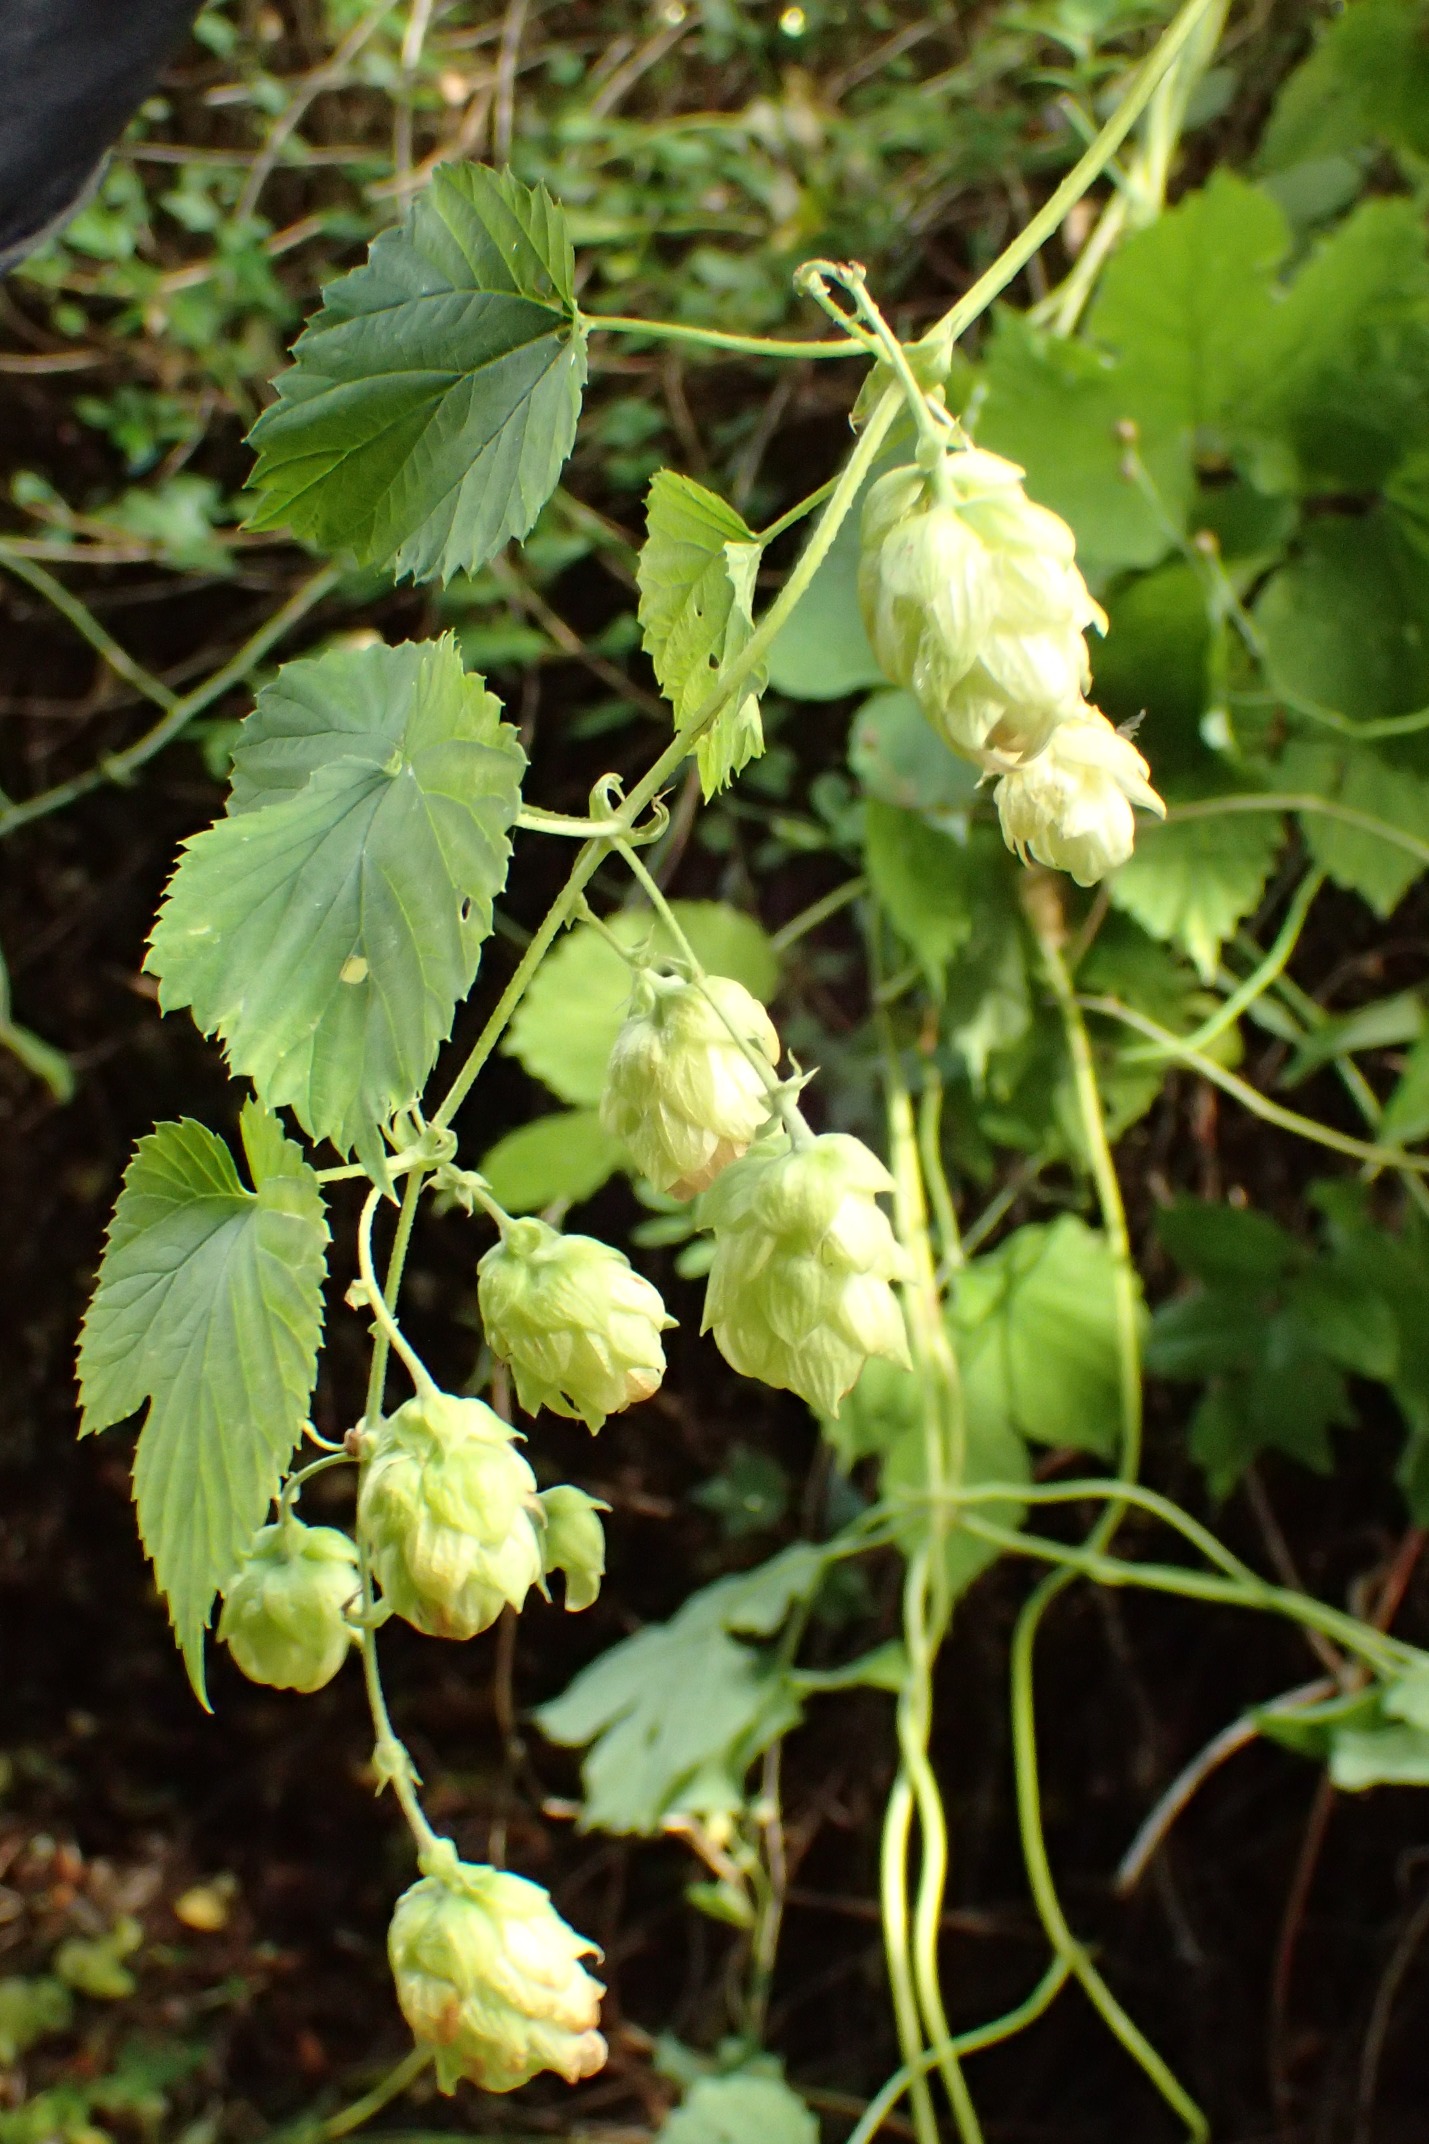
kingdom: Plantae
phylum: Tracheophyta
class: Magnoliopsida
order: Rosales
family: Cannabaceae
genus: Humulus
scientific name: Humulus lupulus
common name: Humle
